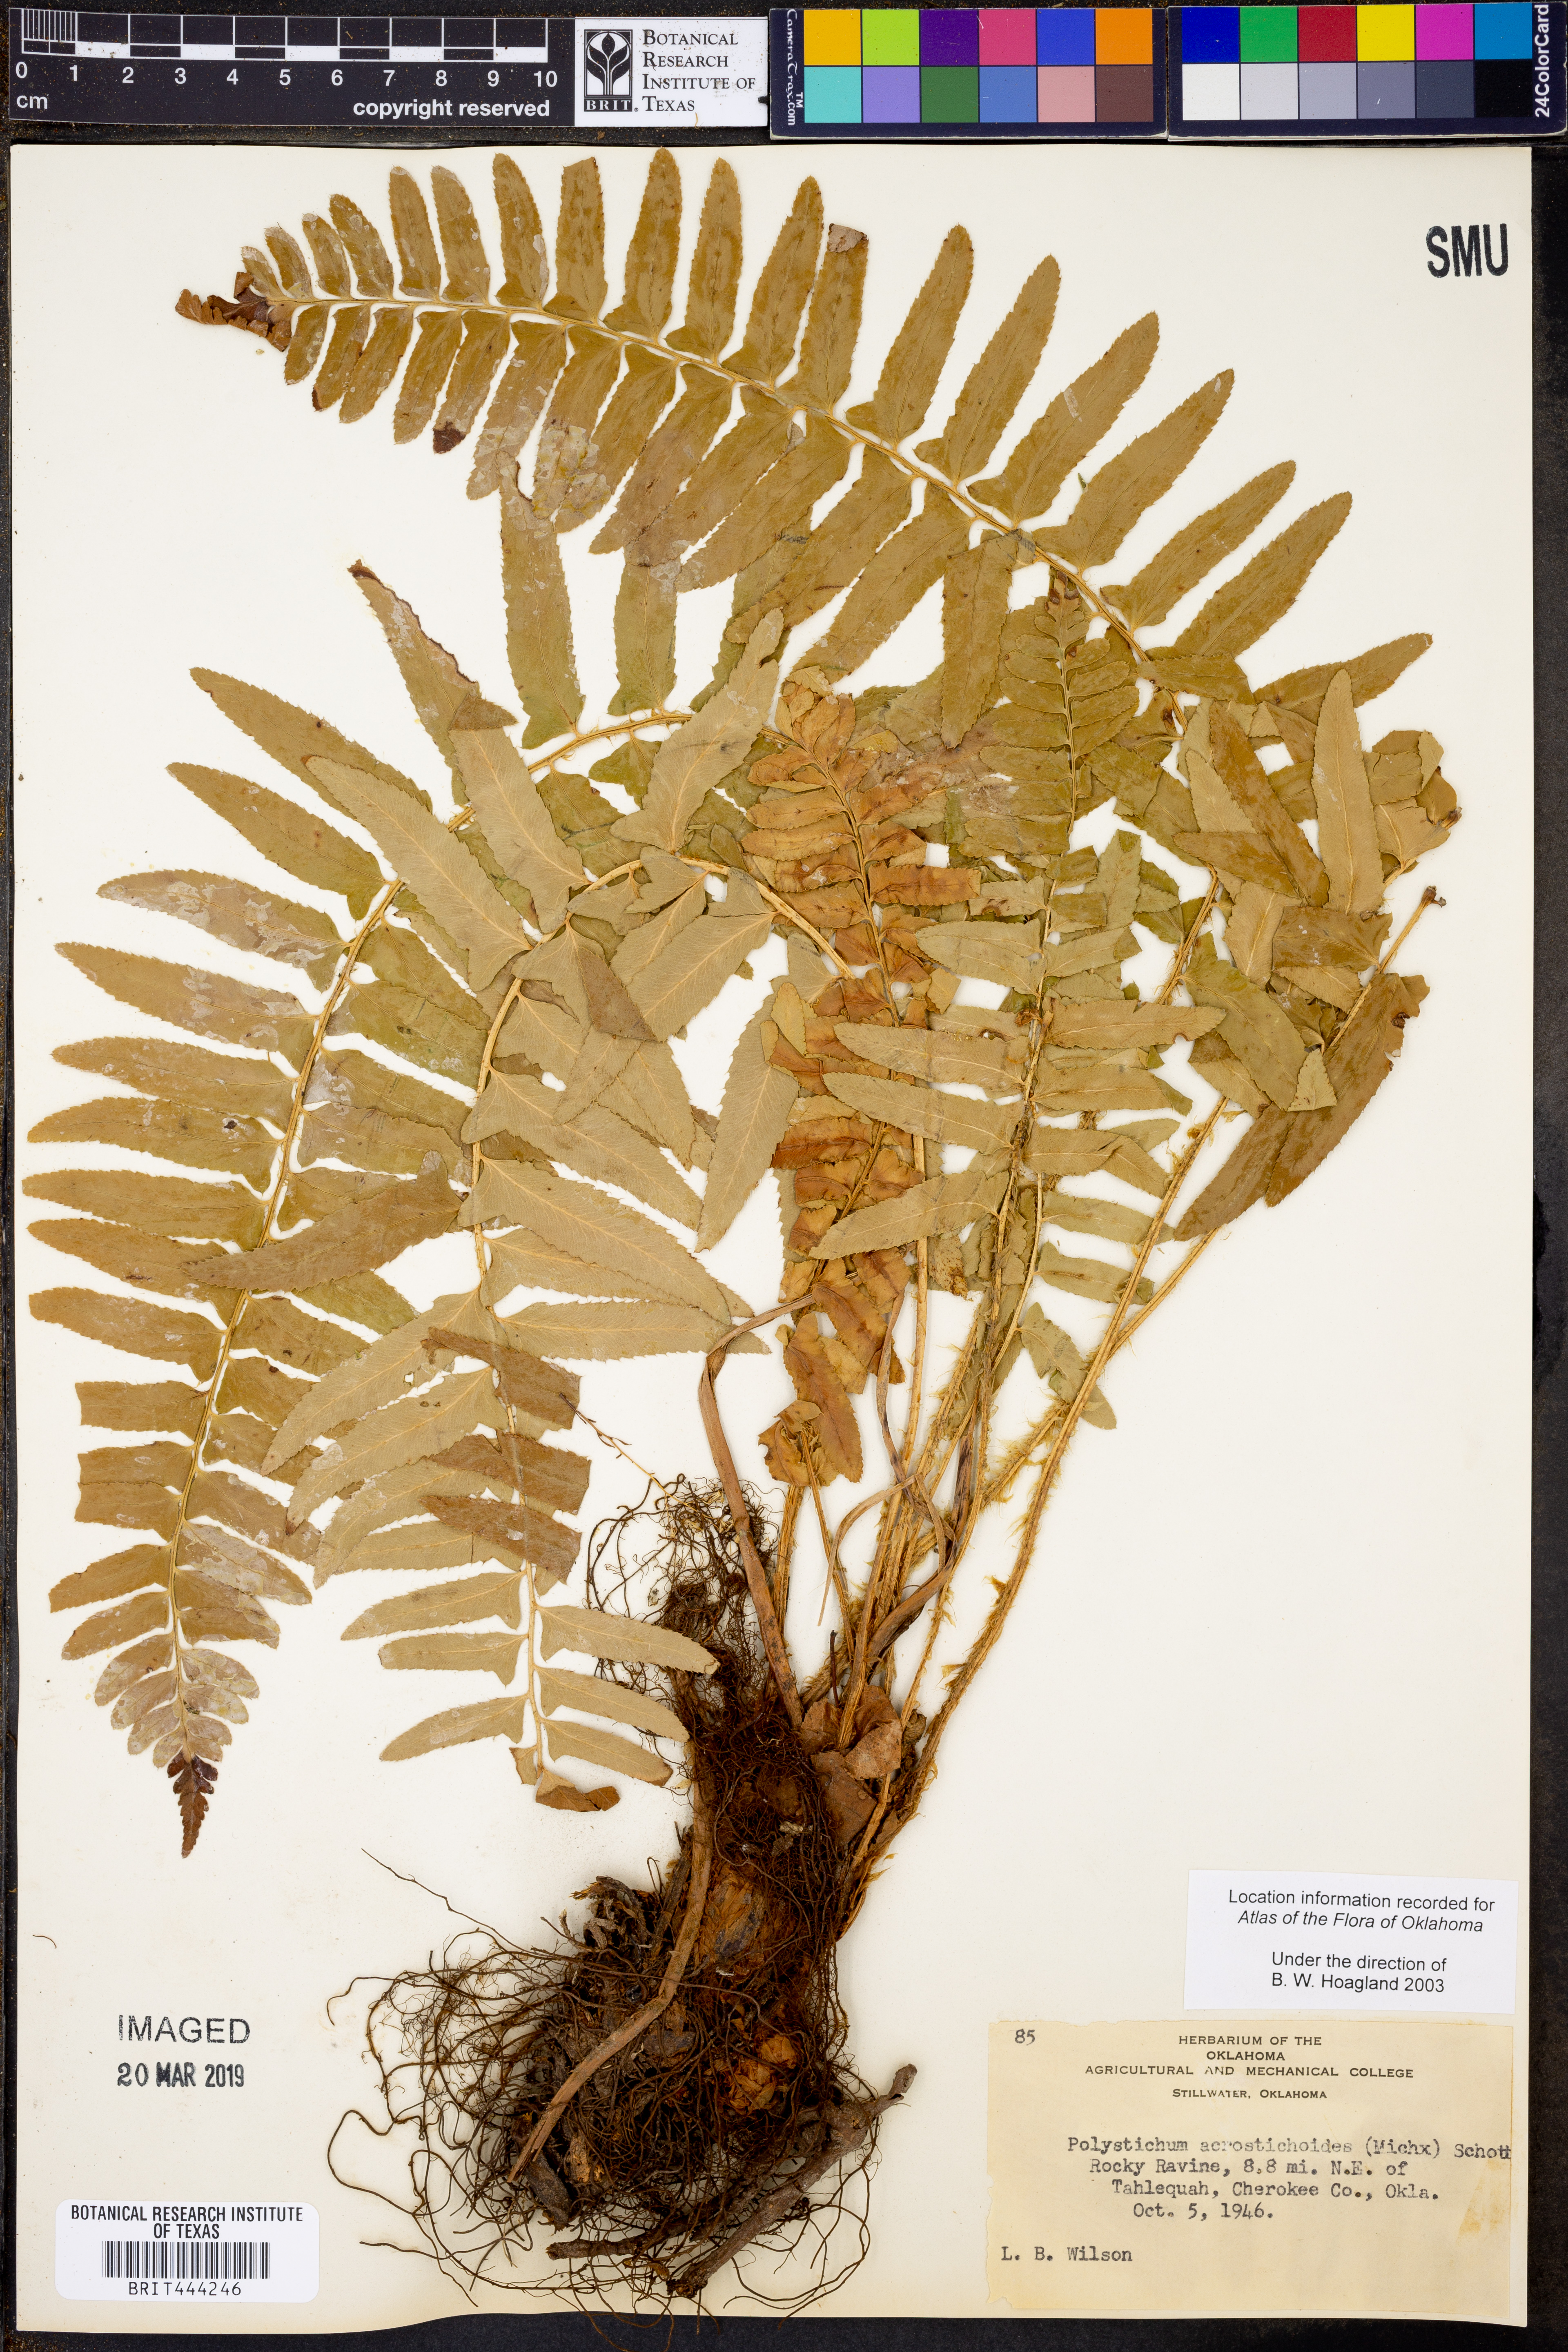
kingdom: Plantae
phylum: Tracheophyta
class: Polypodiopsida
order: Polypodiales
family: Dryopteridaceae
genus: Polystichum
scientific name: Polystichum acrostichoides
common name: Christmas fern
